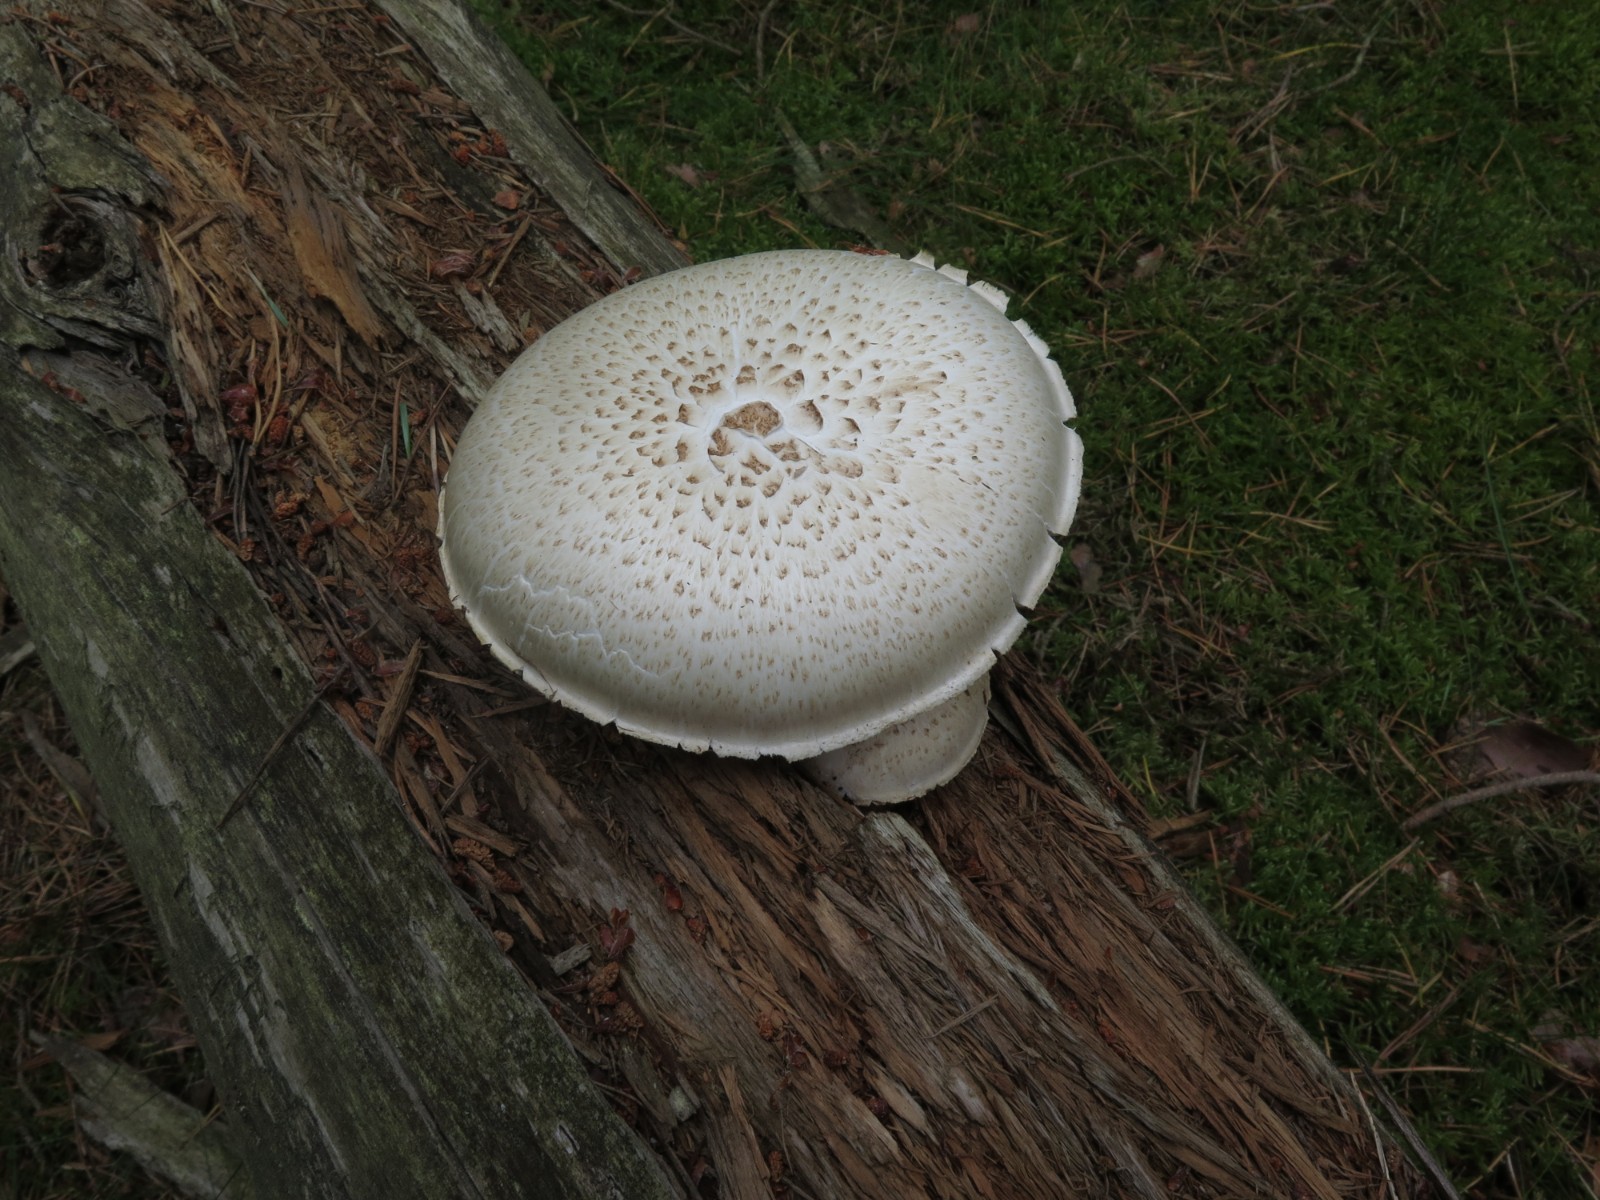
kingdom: Fungi
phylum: Basidiomycota
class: Agaricomycetes
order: Gloeophyllales
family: Gloeophyllaceae
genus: Neolentinus
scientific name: Neolentinus lepideus
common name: skællet sejhat
